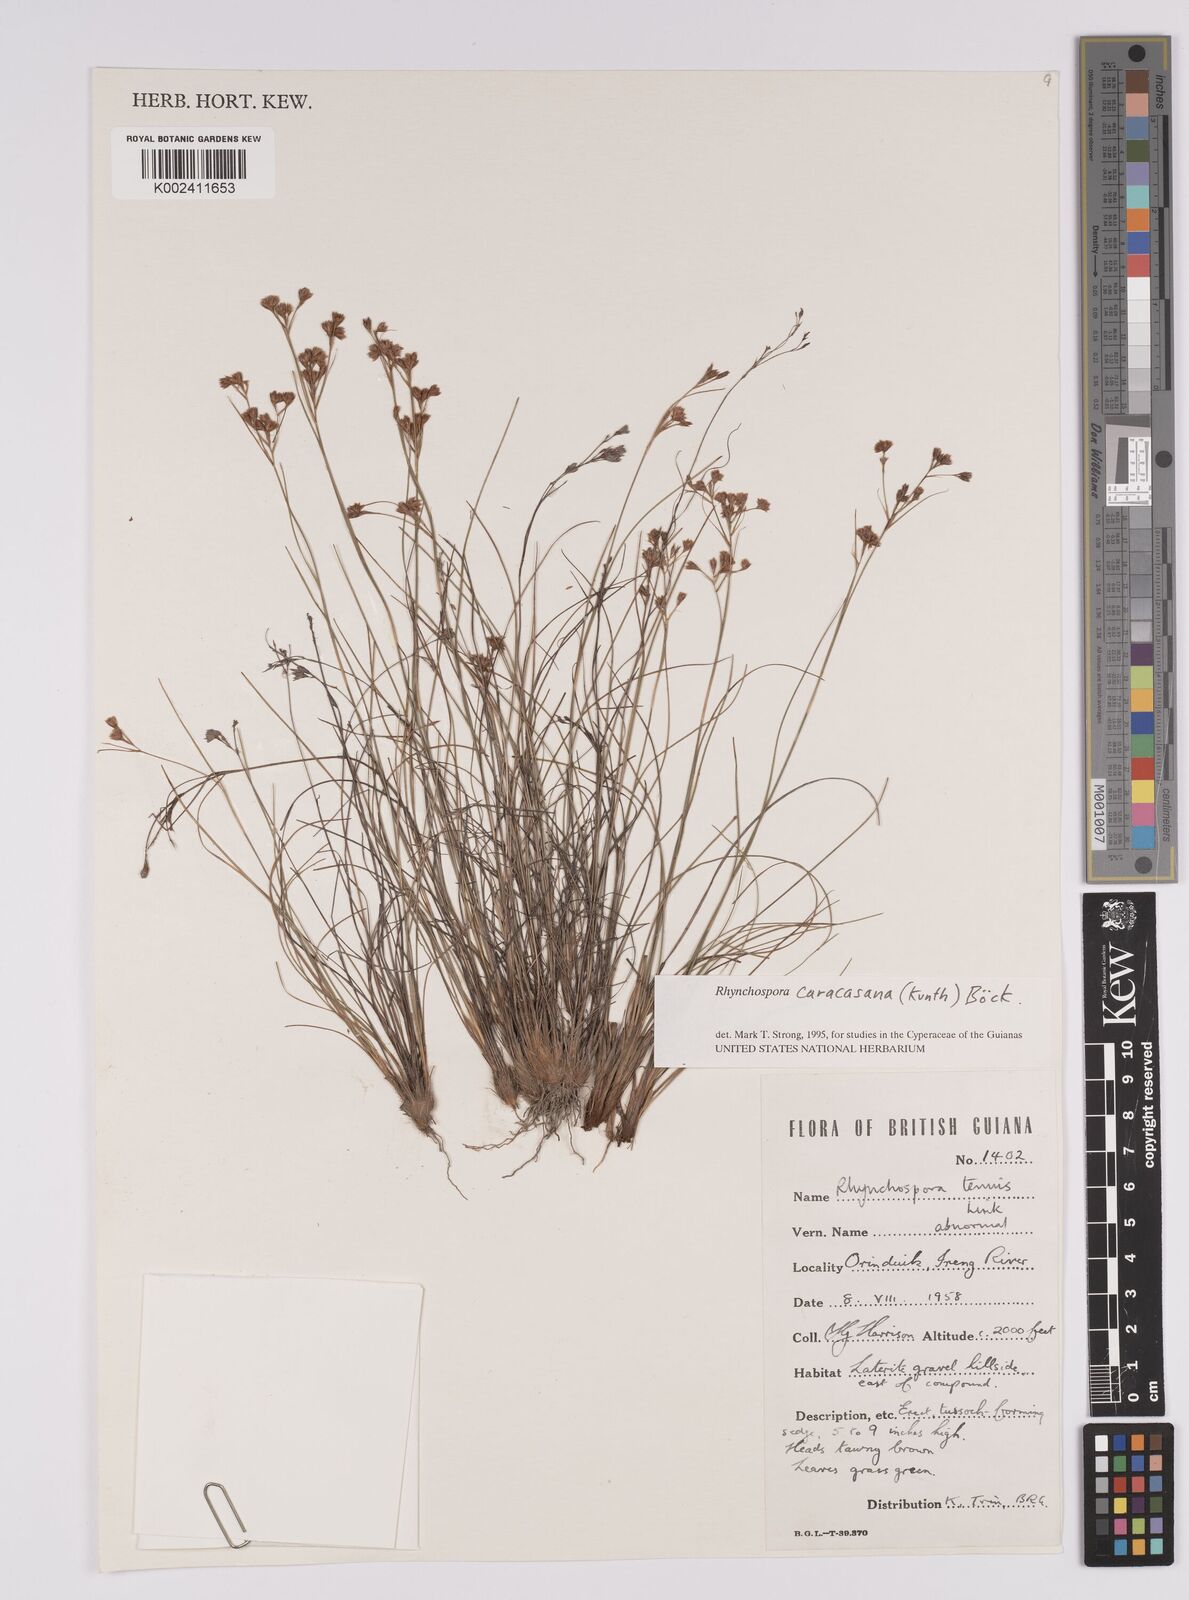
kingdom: Plantae
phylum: Tracheophyta
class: Liliopsida
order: Poales
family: Cyperaceae
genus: Rhynchospora
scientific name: Rhynchospora caracasana
